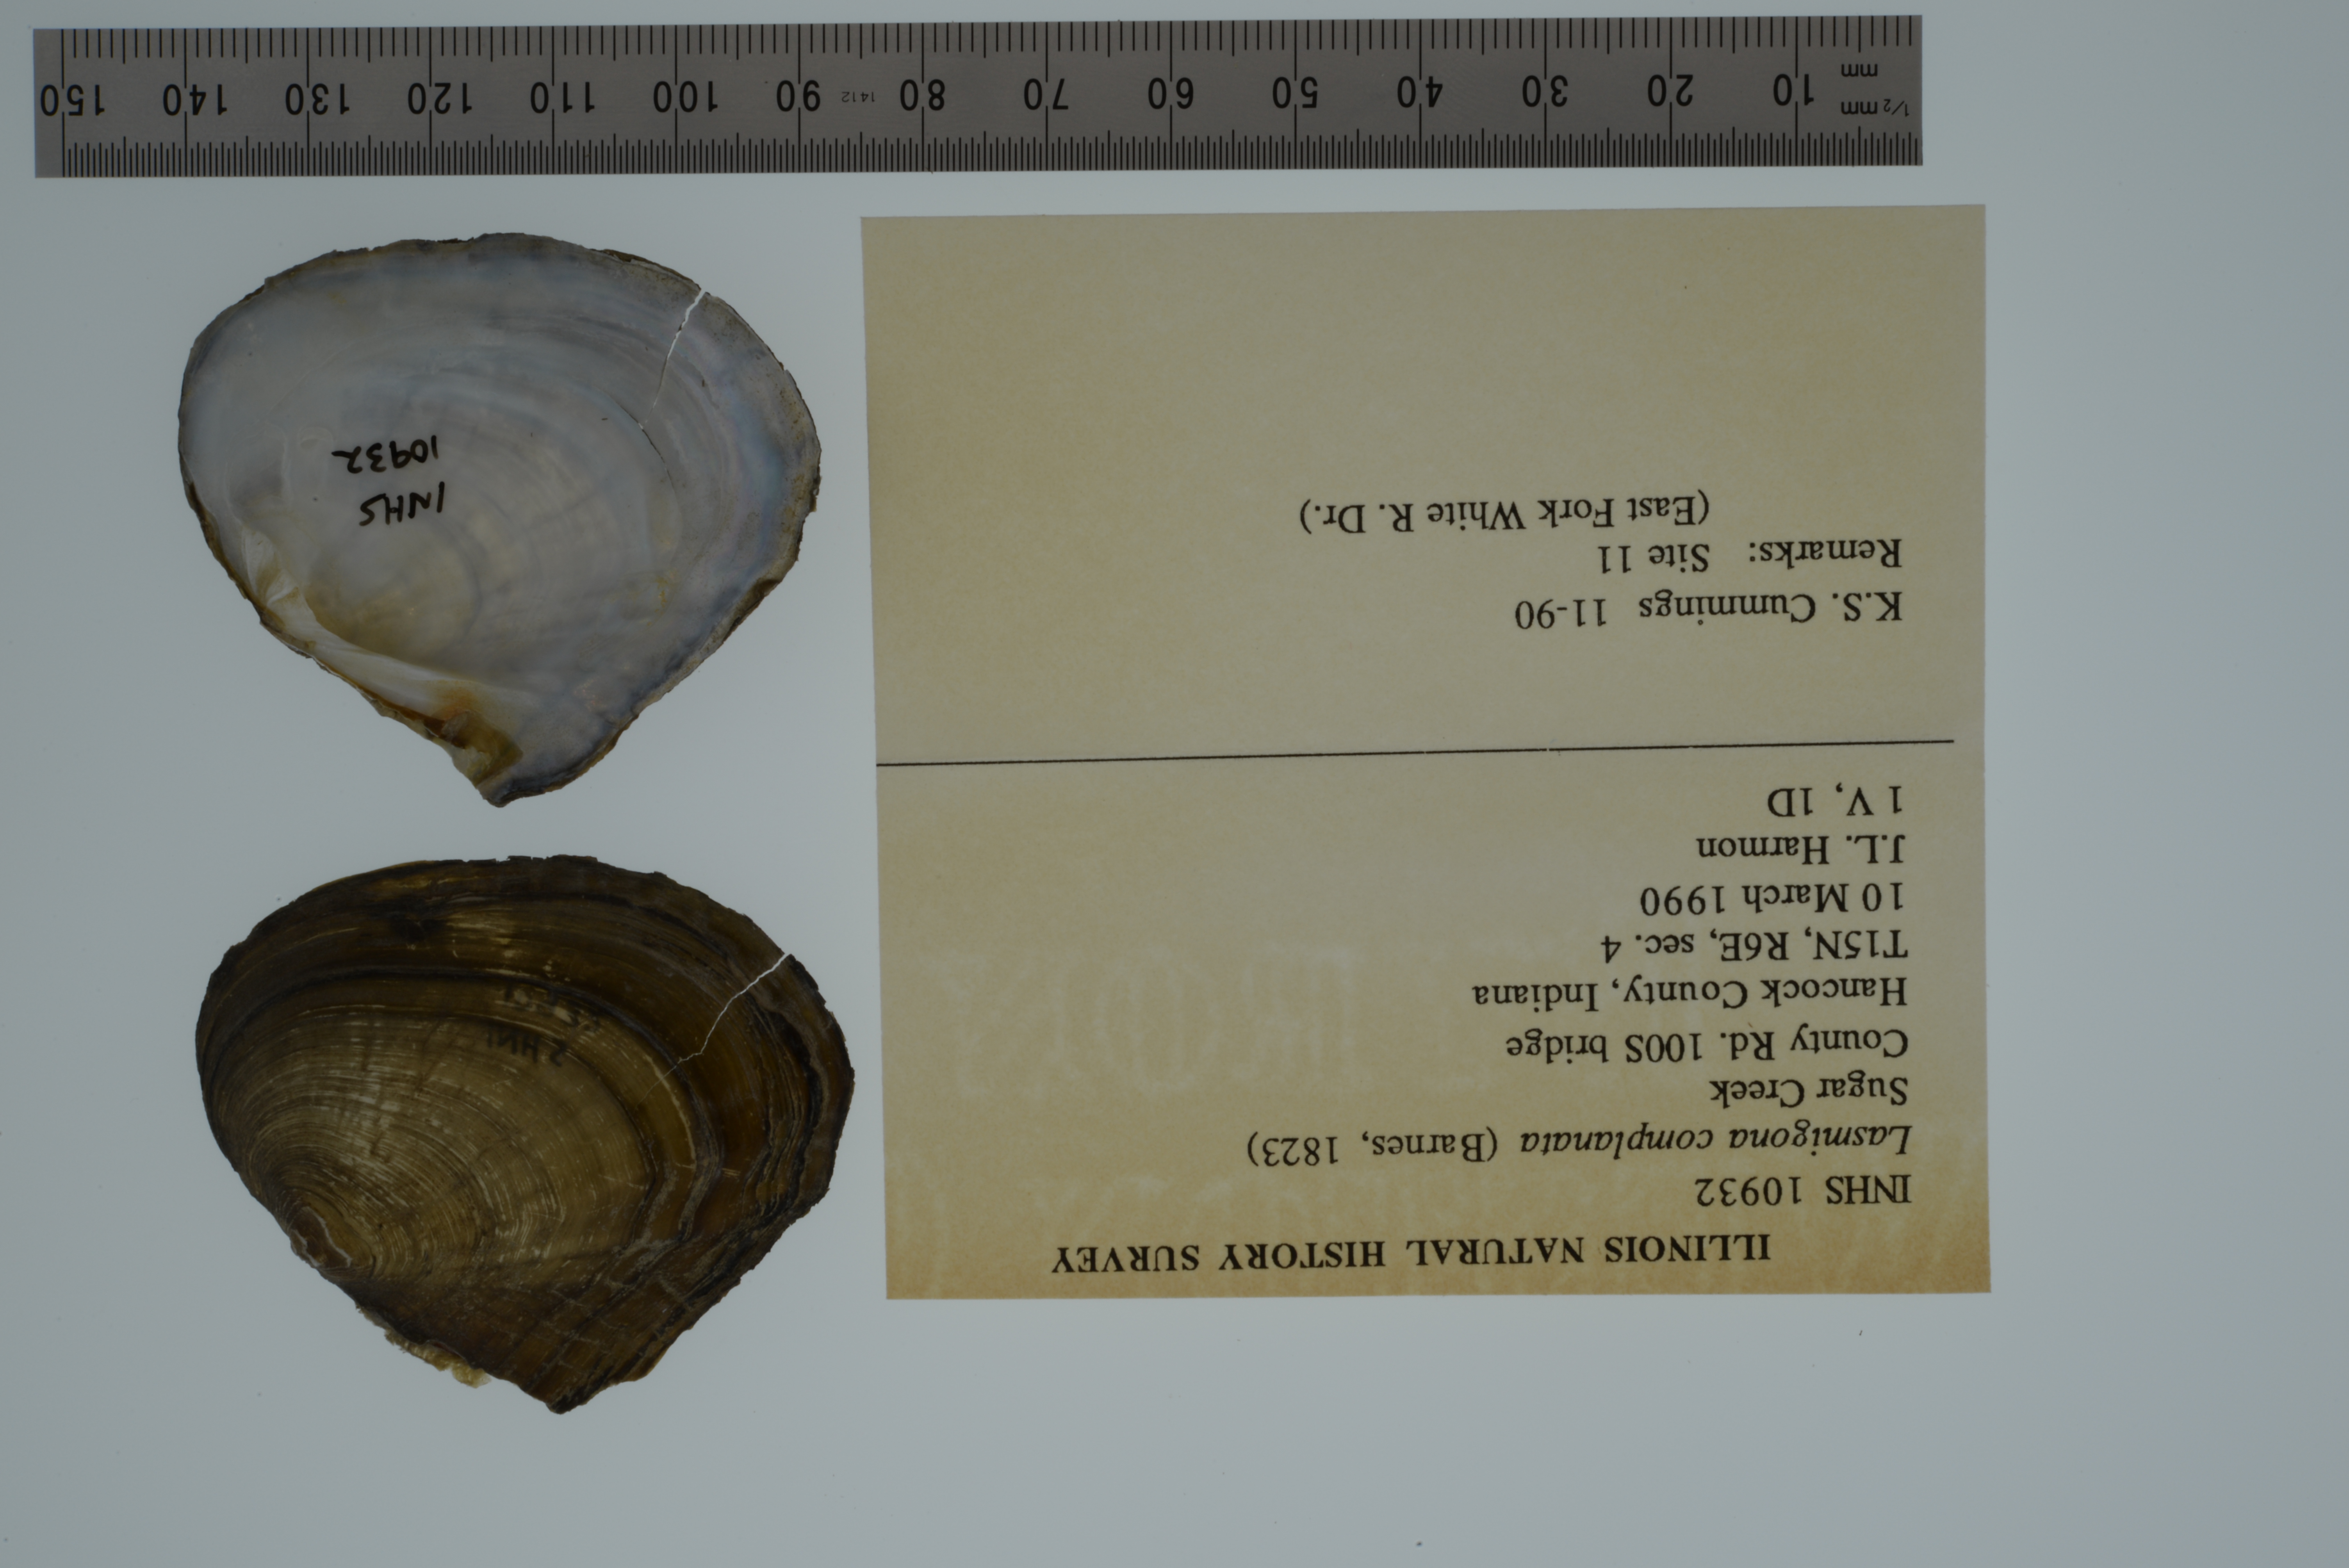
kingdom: Animalia
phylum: Mollusca
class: Bivalvia
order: Unionida
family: Unionidae
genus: Lasmigona
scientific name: Lasmigona complanata
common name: White heelsplitter
